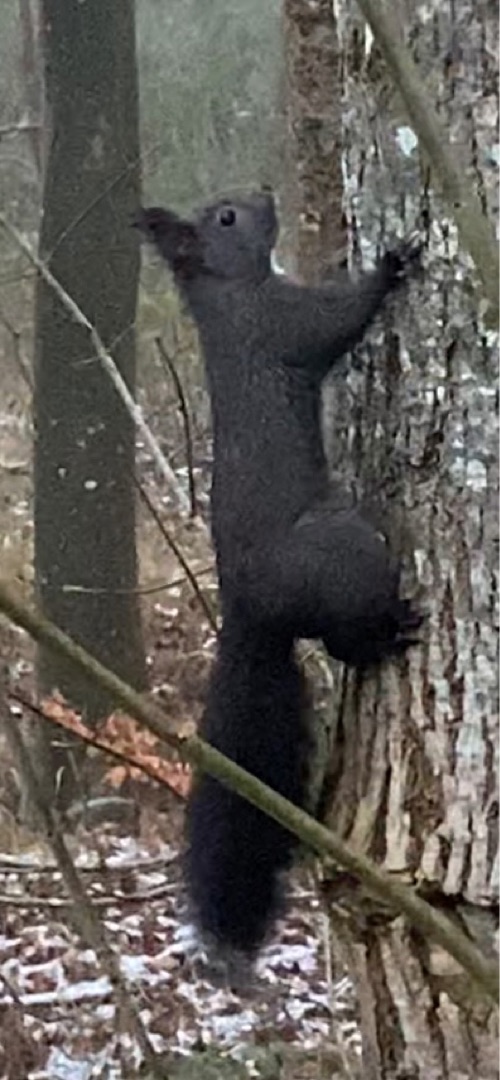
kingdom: Animalia
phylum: Chordata
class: Mammalia
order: Rodentia
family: Sciuridae
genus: Sciurus
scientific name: Sciurus vulgaris
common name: Egern
